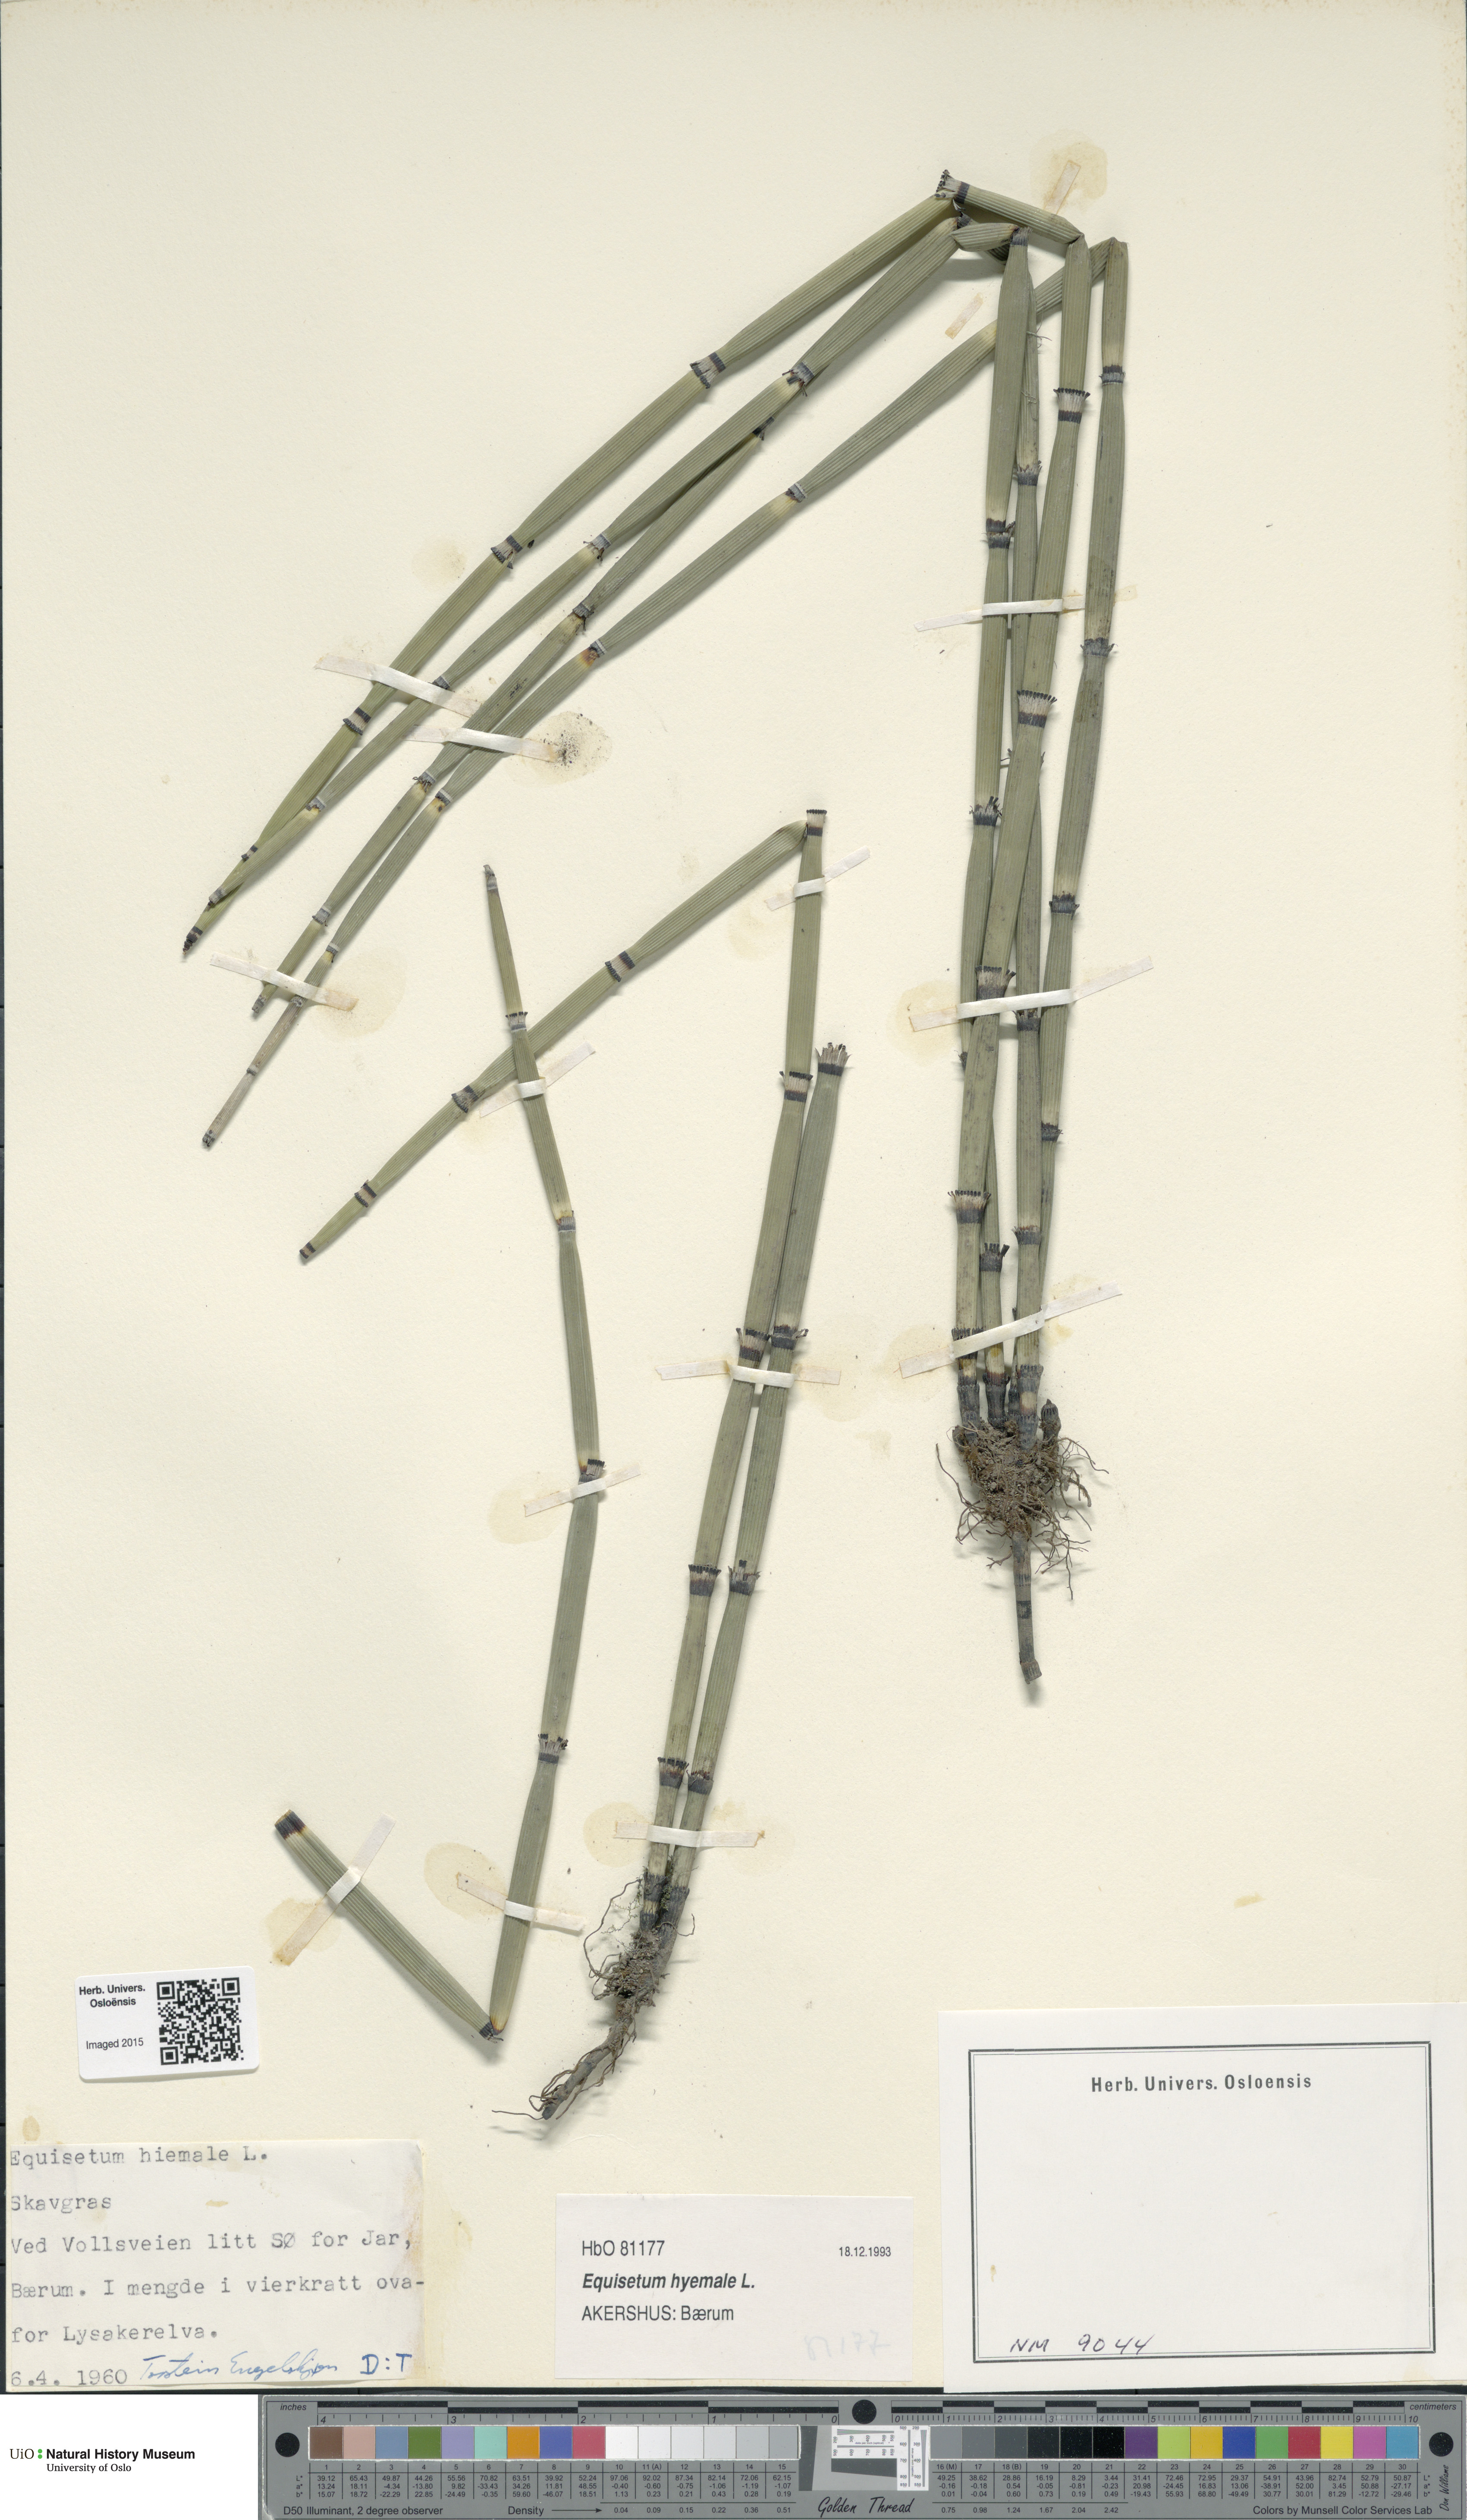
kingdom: Plantae
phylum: Tracheophyta
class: Polypodiopsida
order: Equisetales
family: Equisetaceae
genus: Equisetum
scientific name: Equisetum hyemale
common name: Rough horsetail
